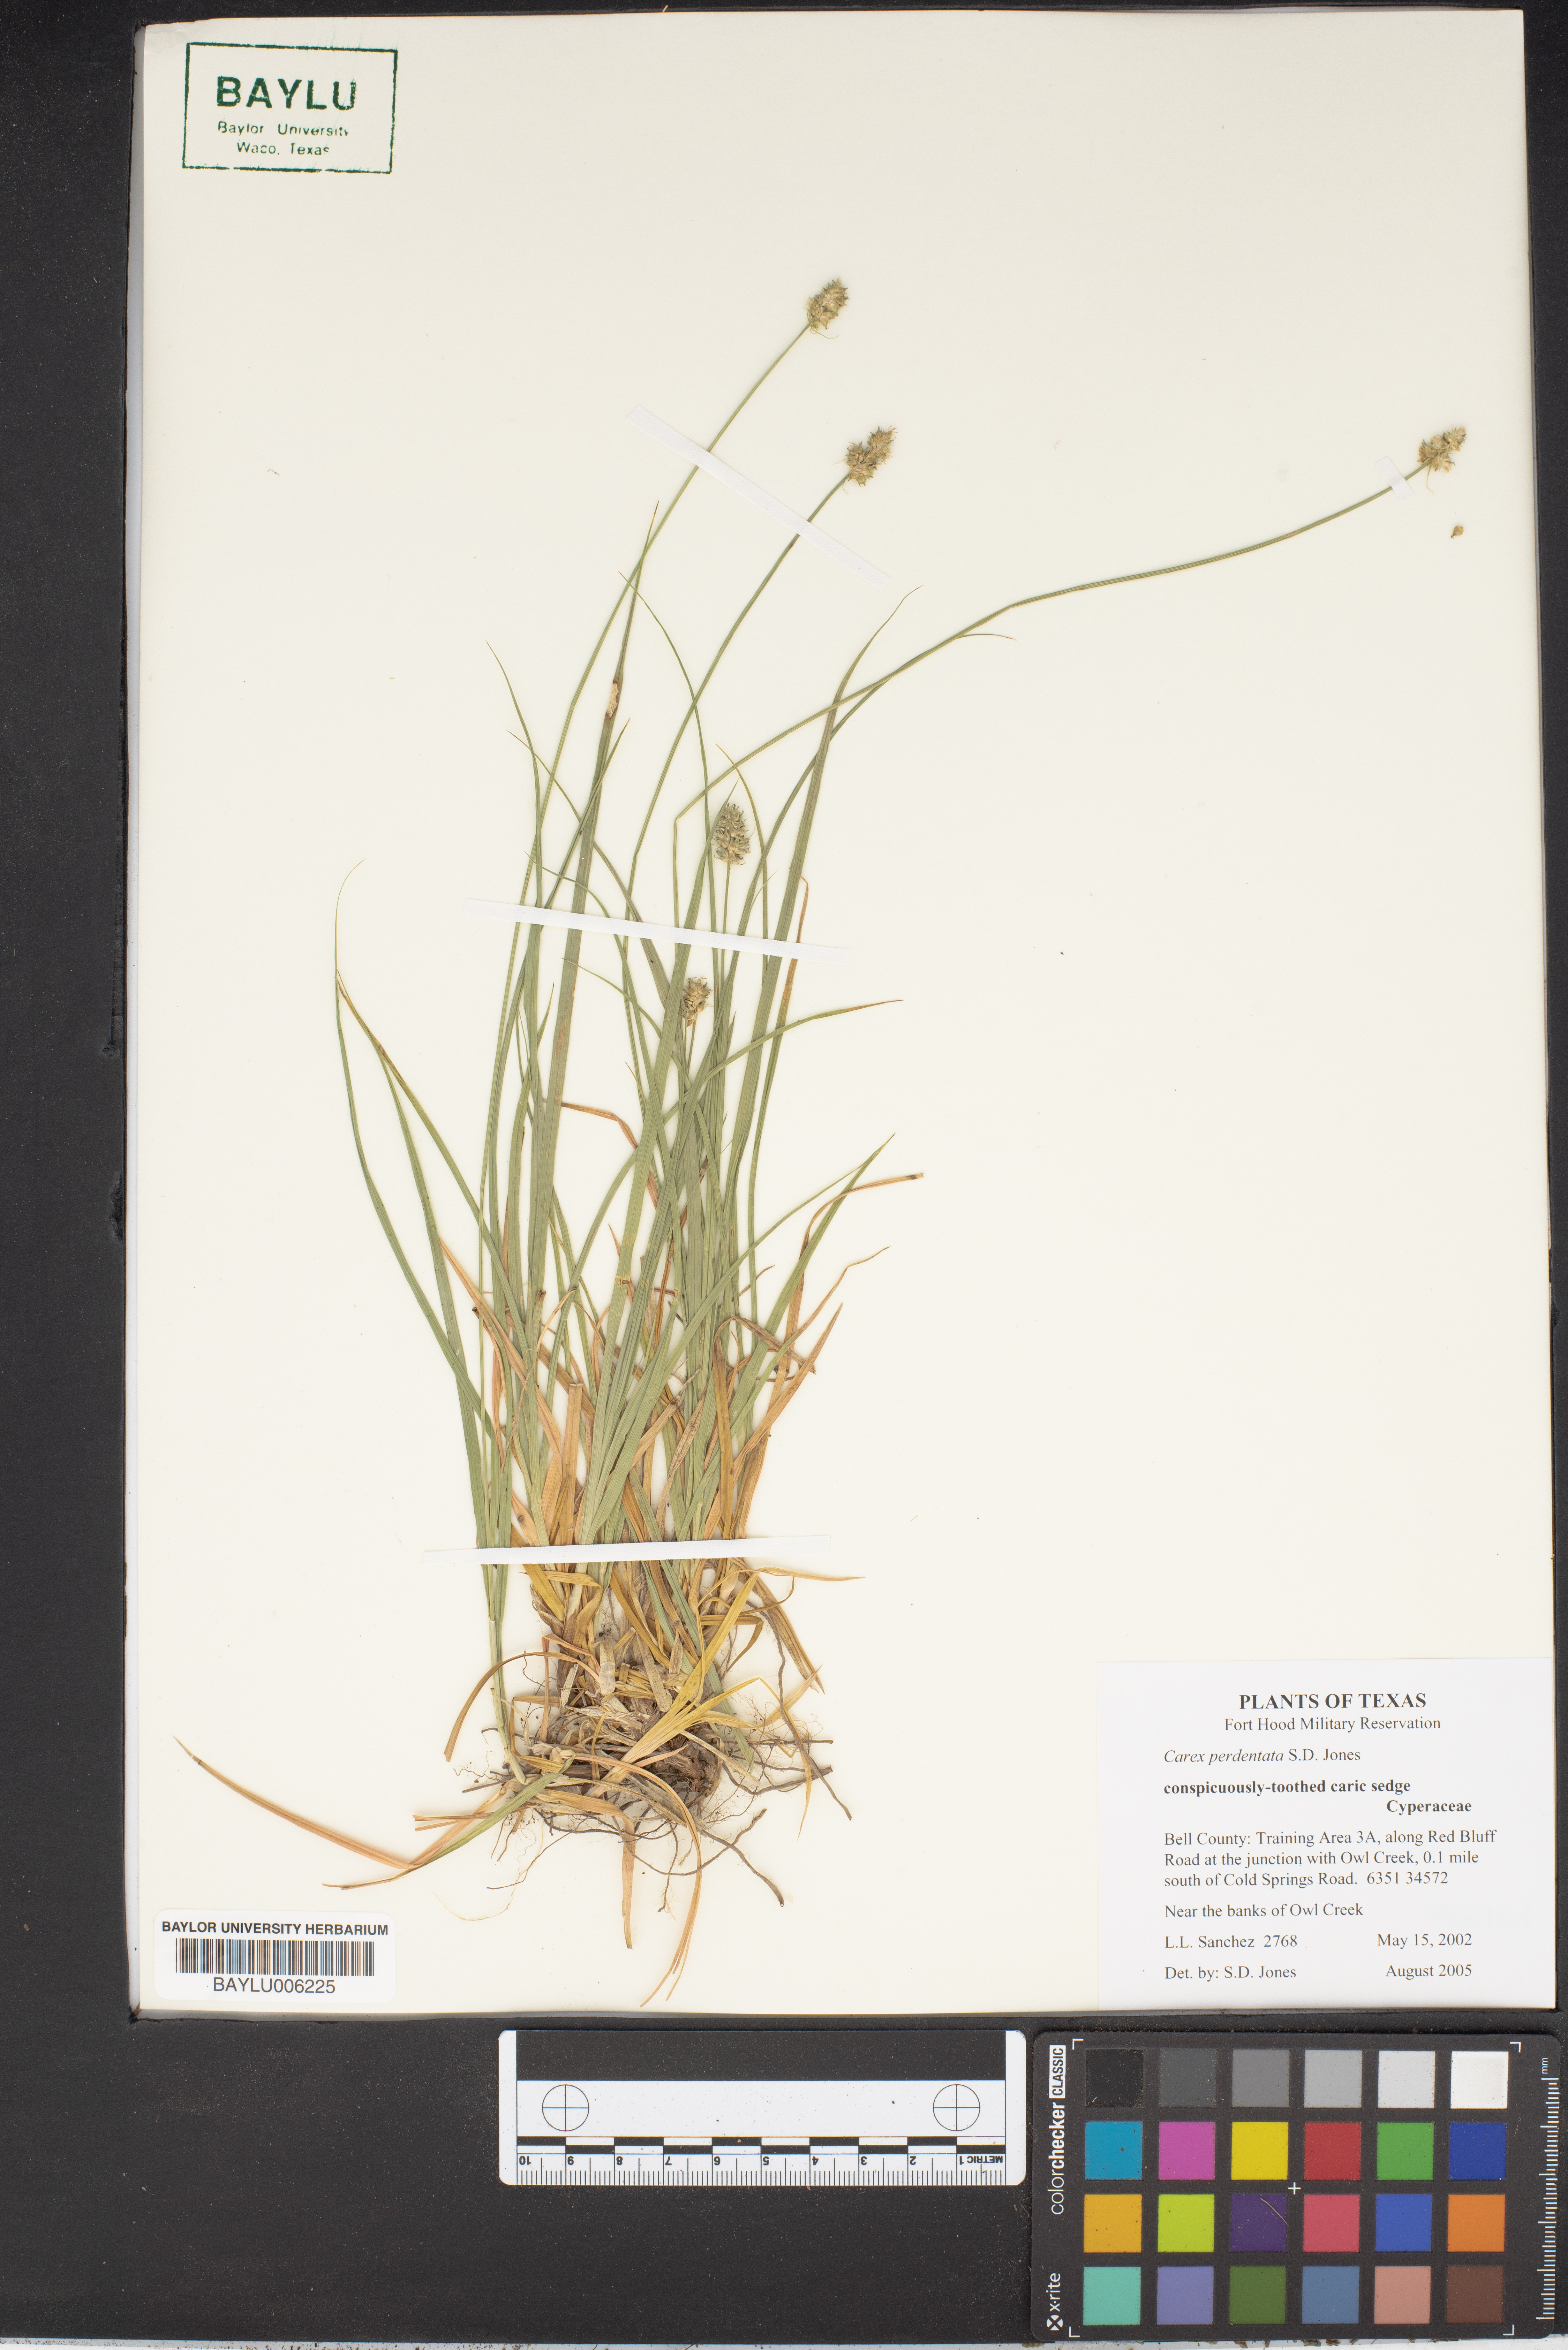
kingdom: Plantae
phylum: Tracheophyta
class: Liliopsida
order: Poales
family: Cyperaceae
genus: Carex
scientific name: Carex perdentata
